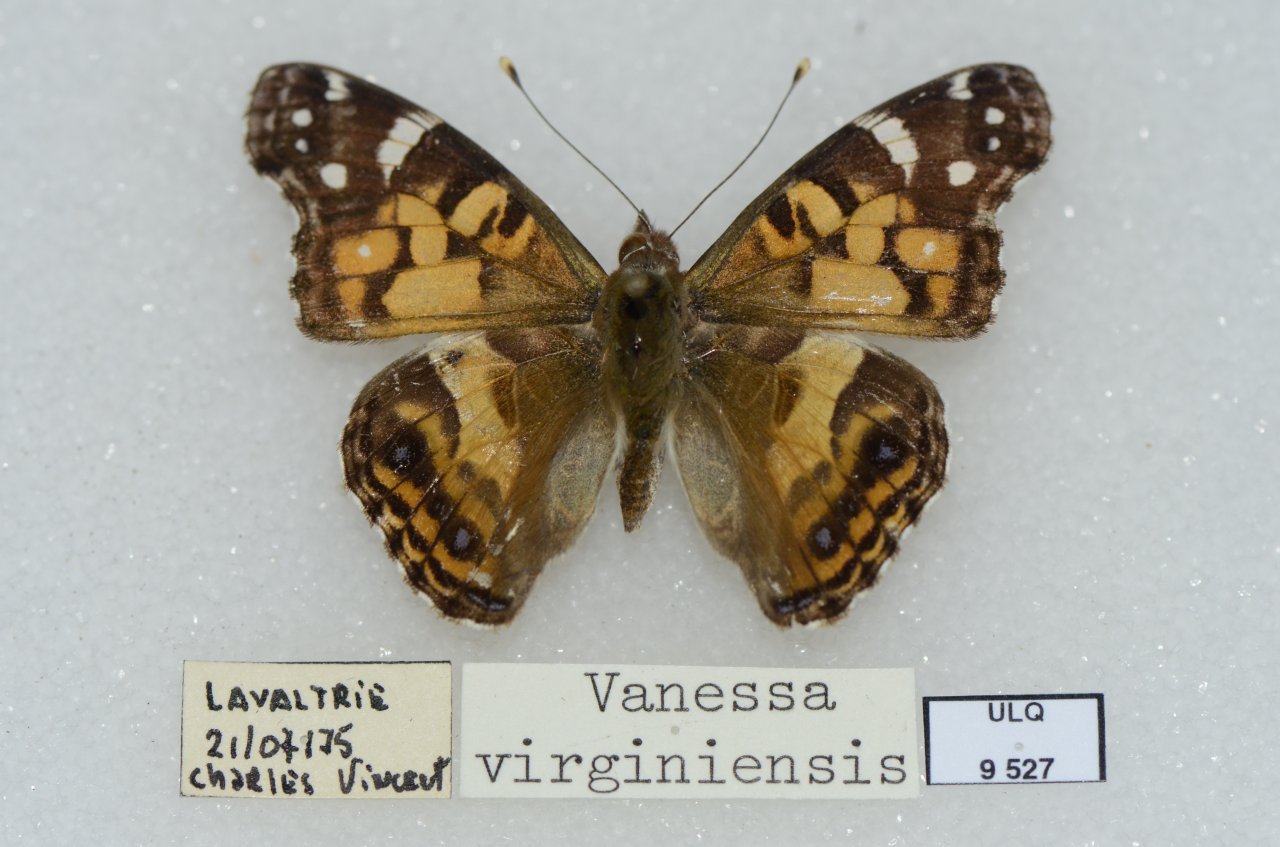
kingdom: Animalia
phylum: Arthropoda
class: Insecta
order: Lepidoptera
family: Nymphalidae
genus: Vanessa
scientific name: Vanessa virginiensis
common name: American Lady
